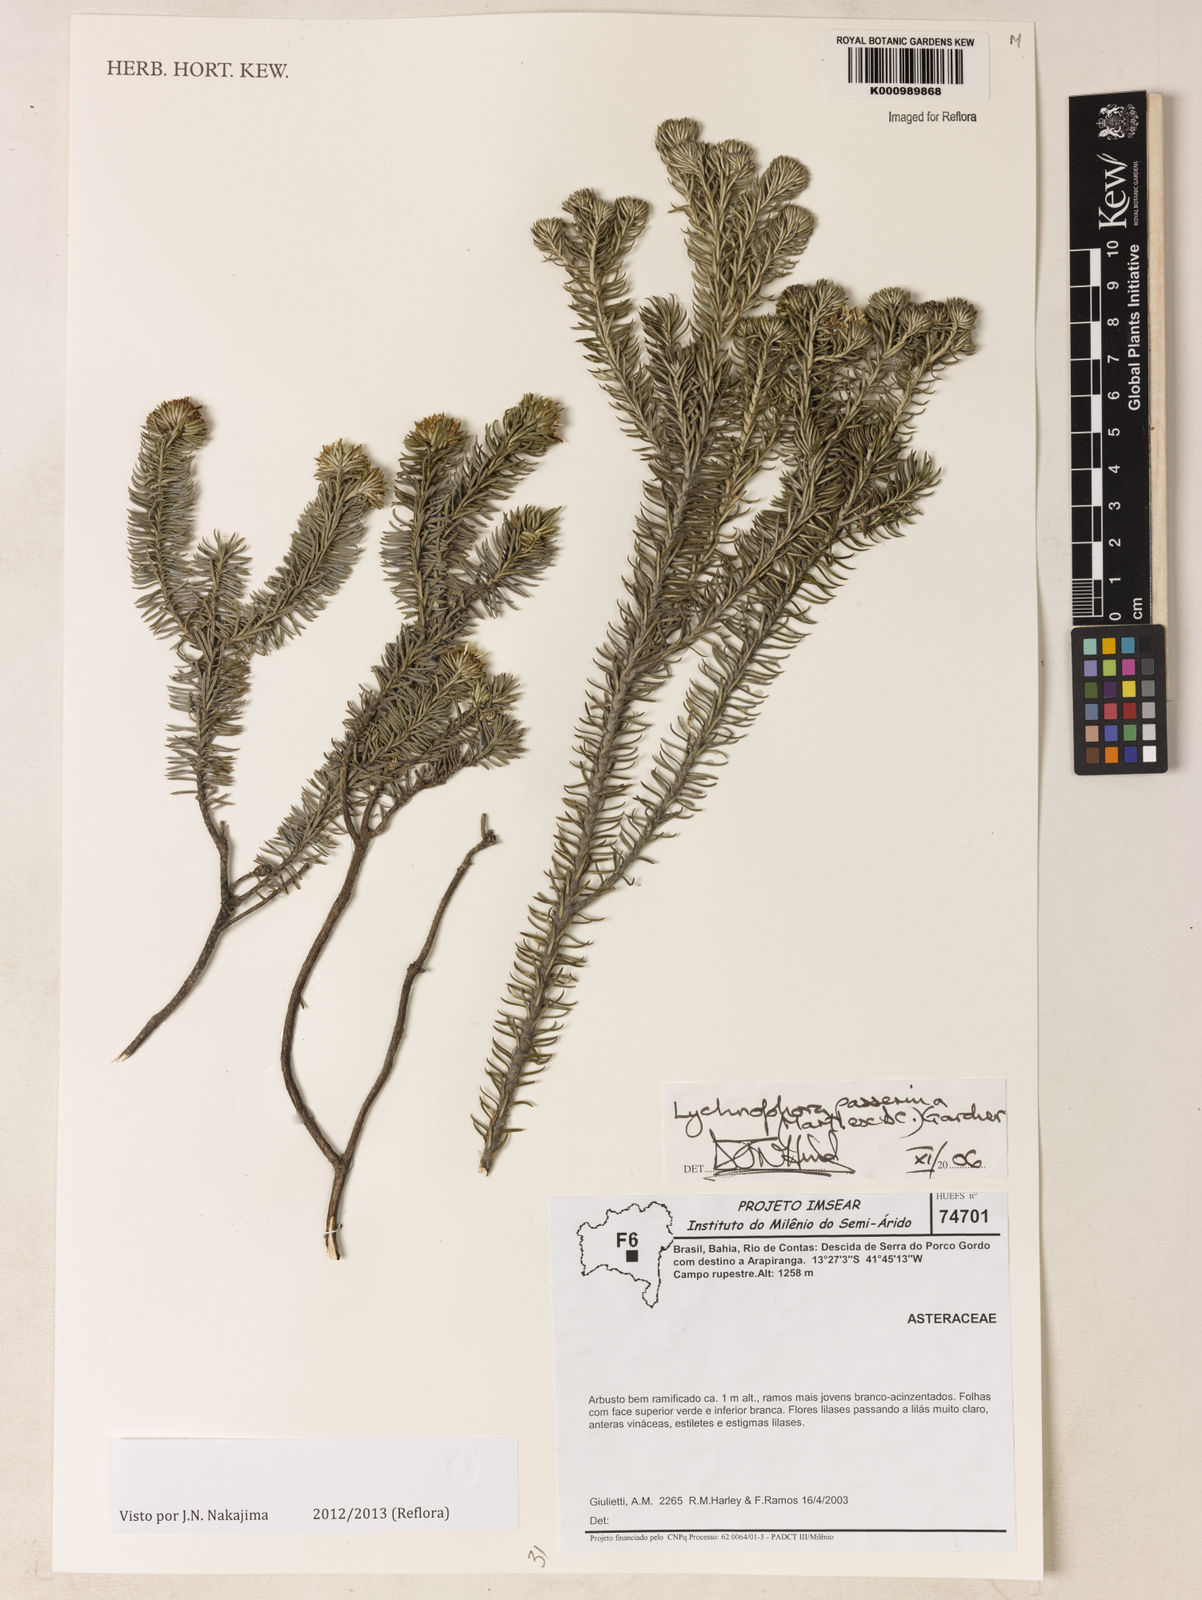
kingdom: Plantae
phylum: Tracheophyta
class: Magnoliopsida
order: Asterales
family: Asteraceae
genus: Lychnophora
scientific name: Lychnophora passerina
